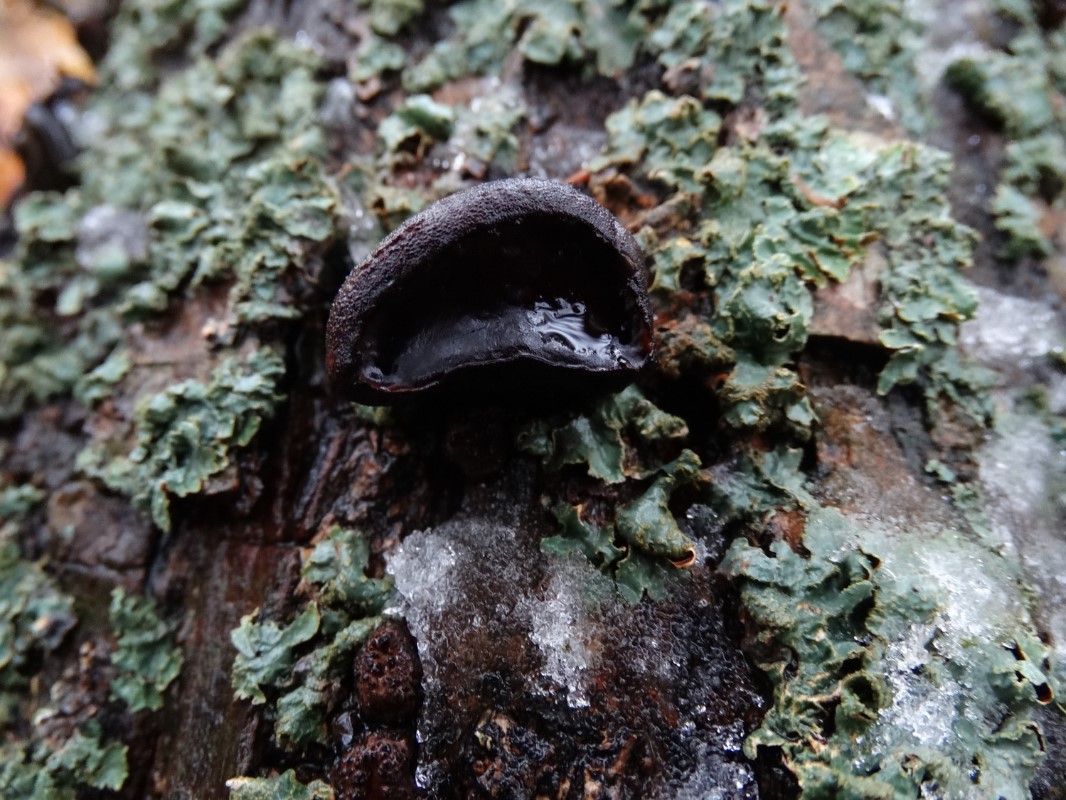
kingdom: Fungi
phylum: Ascomycota
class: Leotiomycetes
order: Phacidiales
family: Phacidiaceae
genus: Bulgaria
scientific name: Bulgaria inquinans
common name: afsmittende topsvamp
